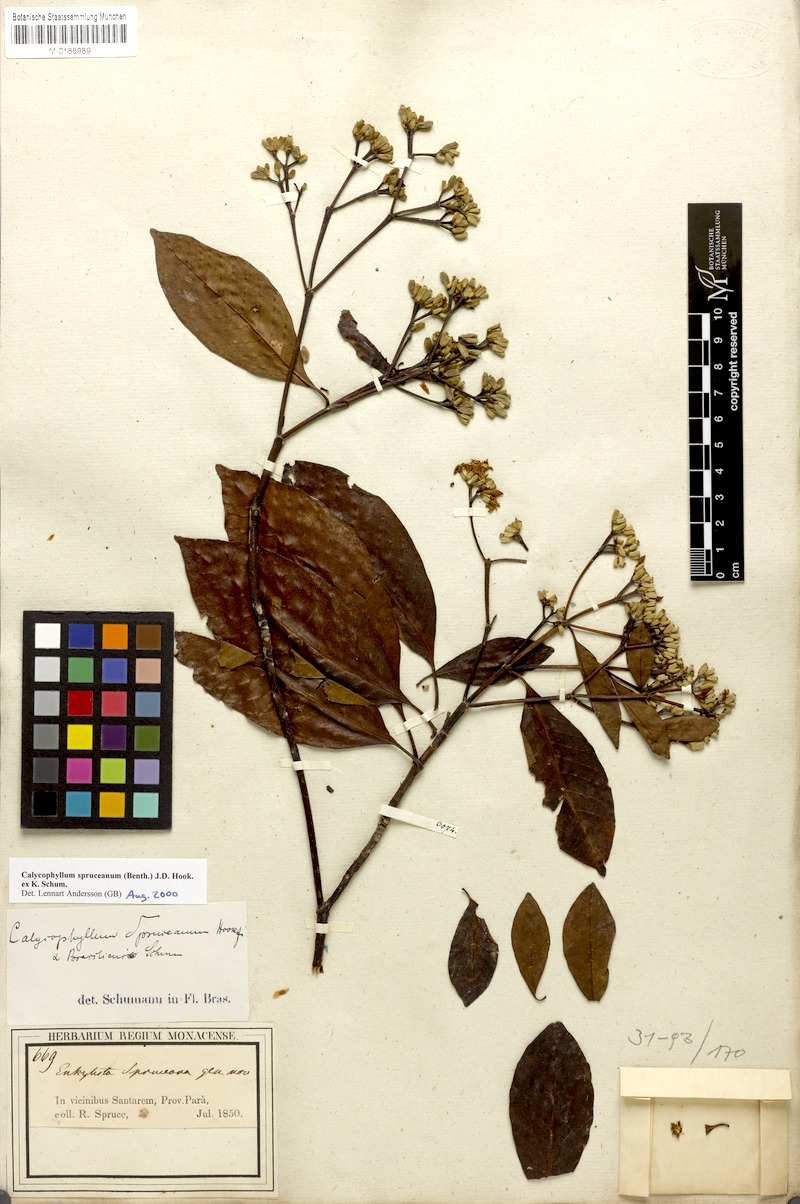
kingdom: Plantae
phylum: Tracheophyta
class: Magnoliopsida
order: Gentianales
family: Rubiaceae
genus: Calycophyllum
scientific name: Calycophyllum spruceanum
